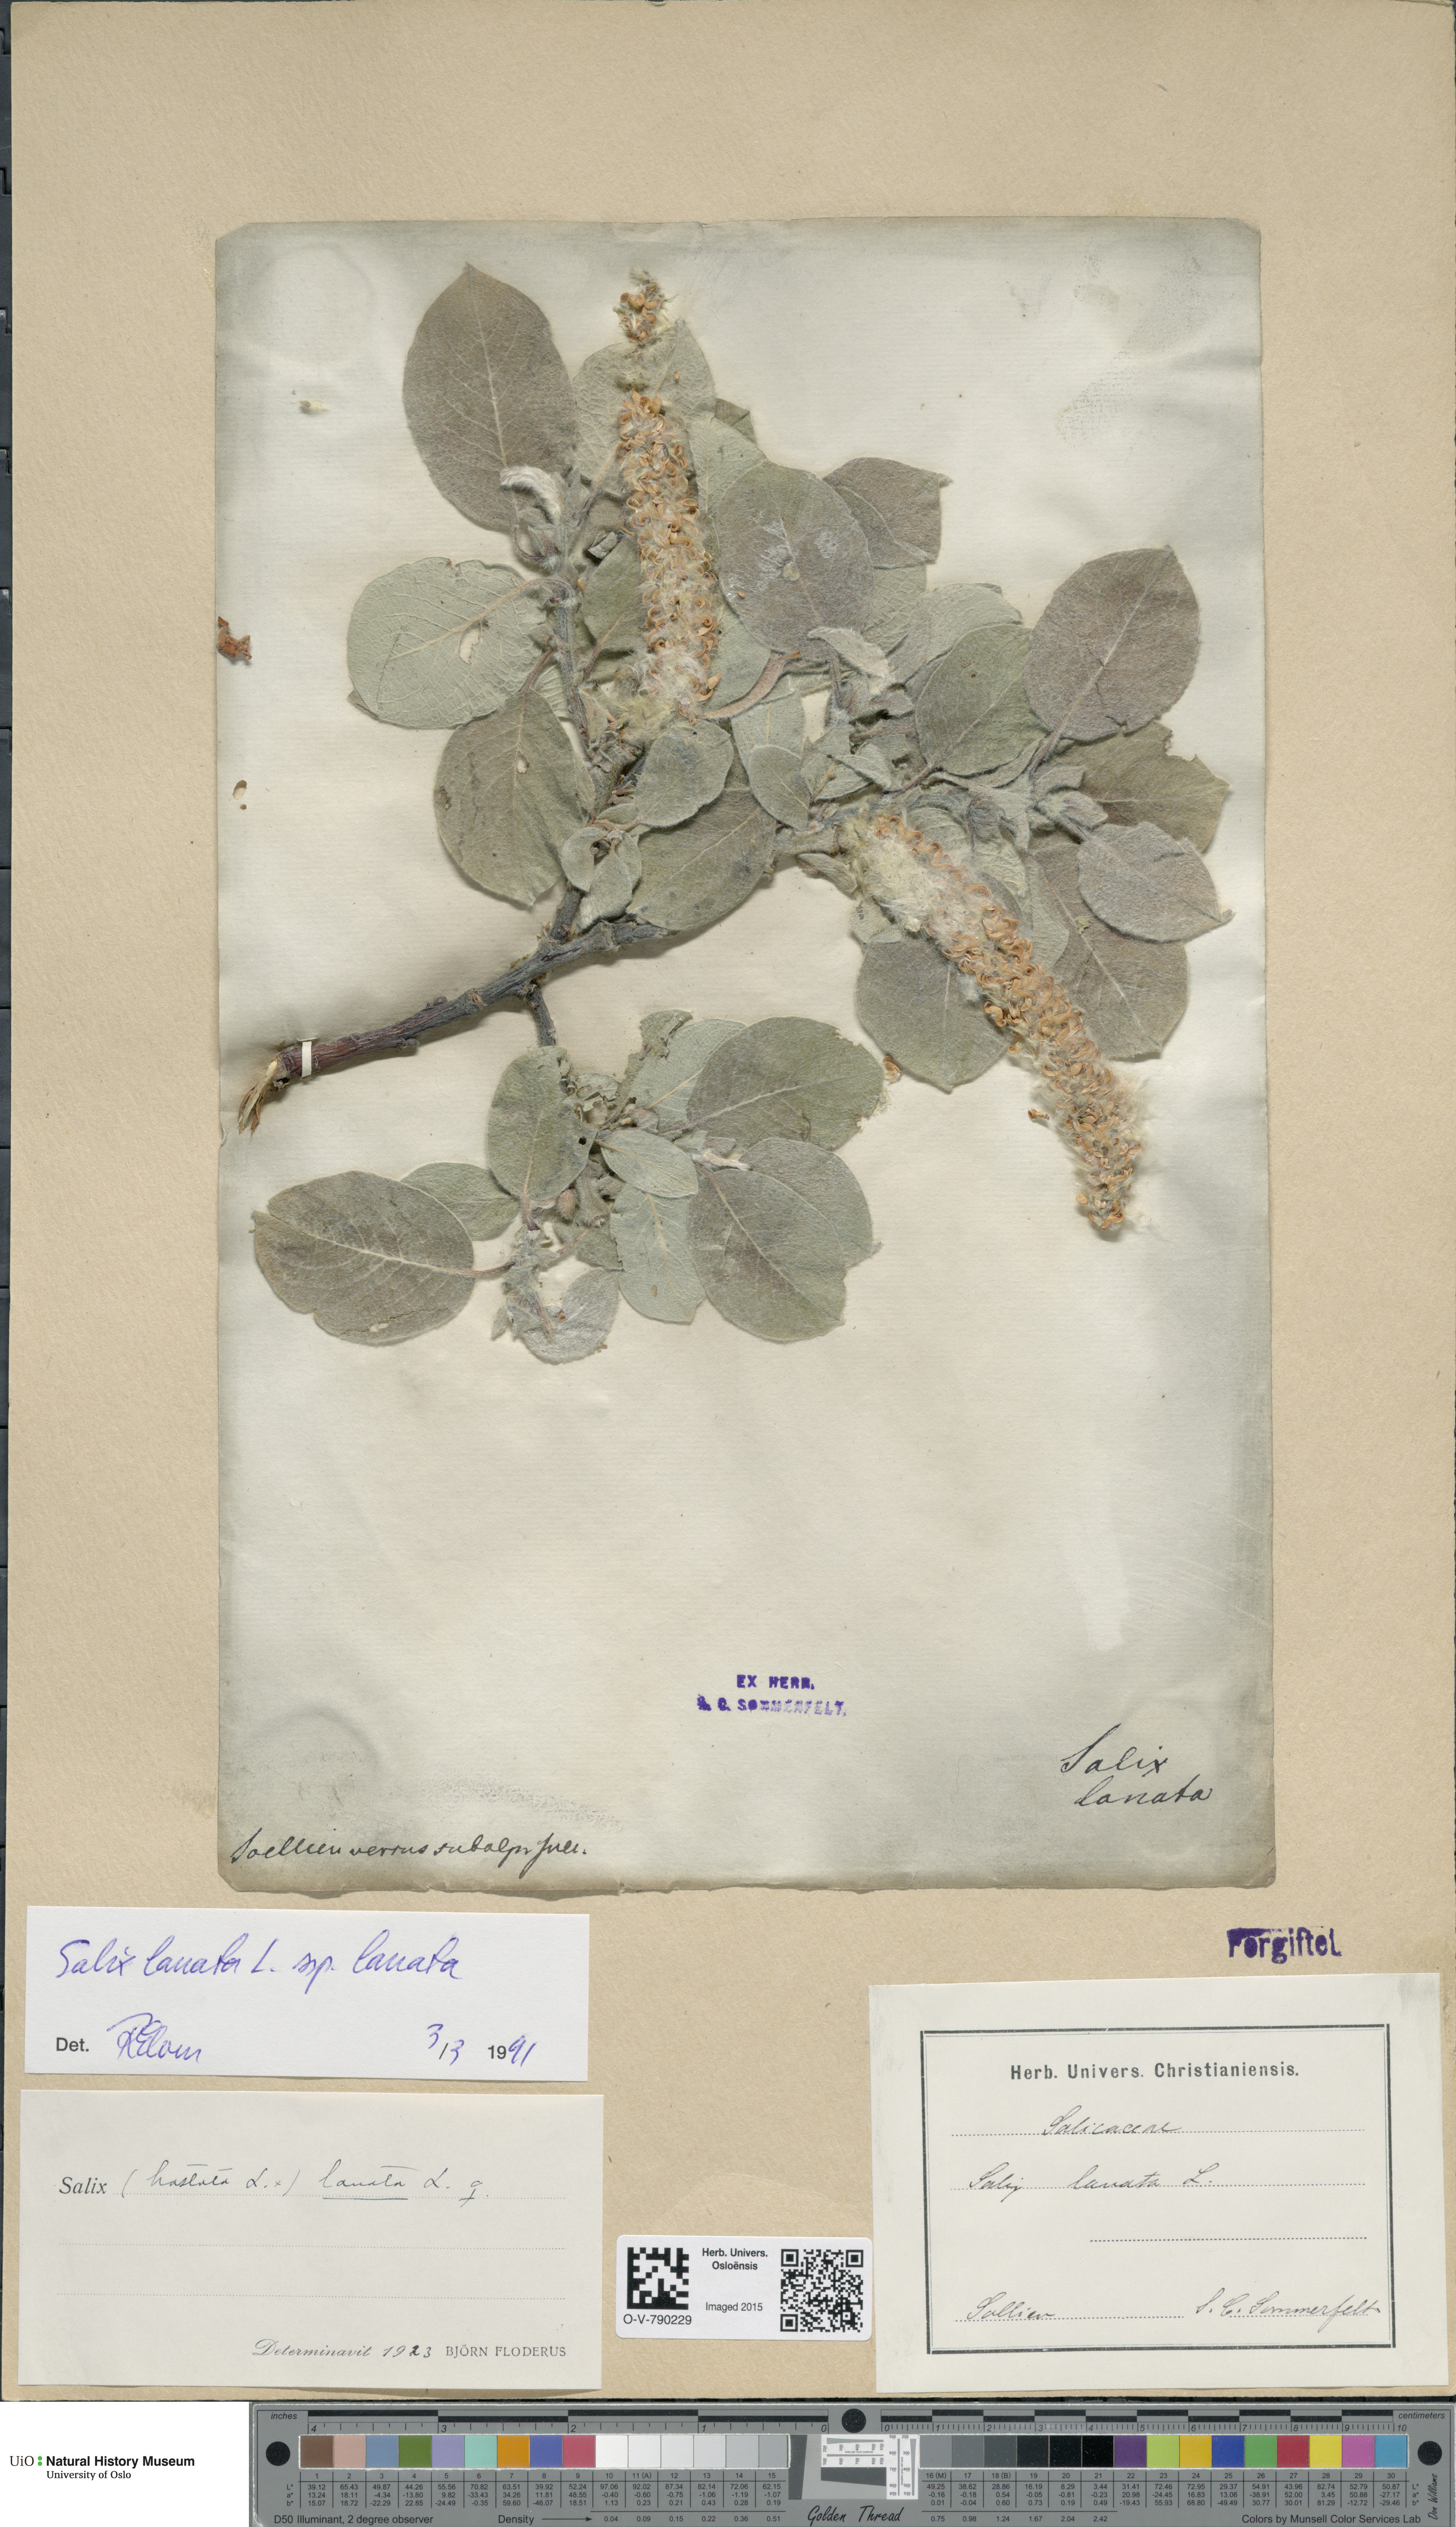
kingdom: Plantae
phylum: Tracheophyta
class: Magnoliopsida
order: Malpighiales
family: Salicaceae
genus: Salix
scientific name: Salix lanata
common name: Woolly willow
